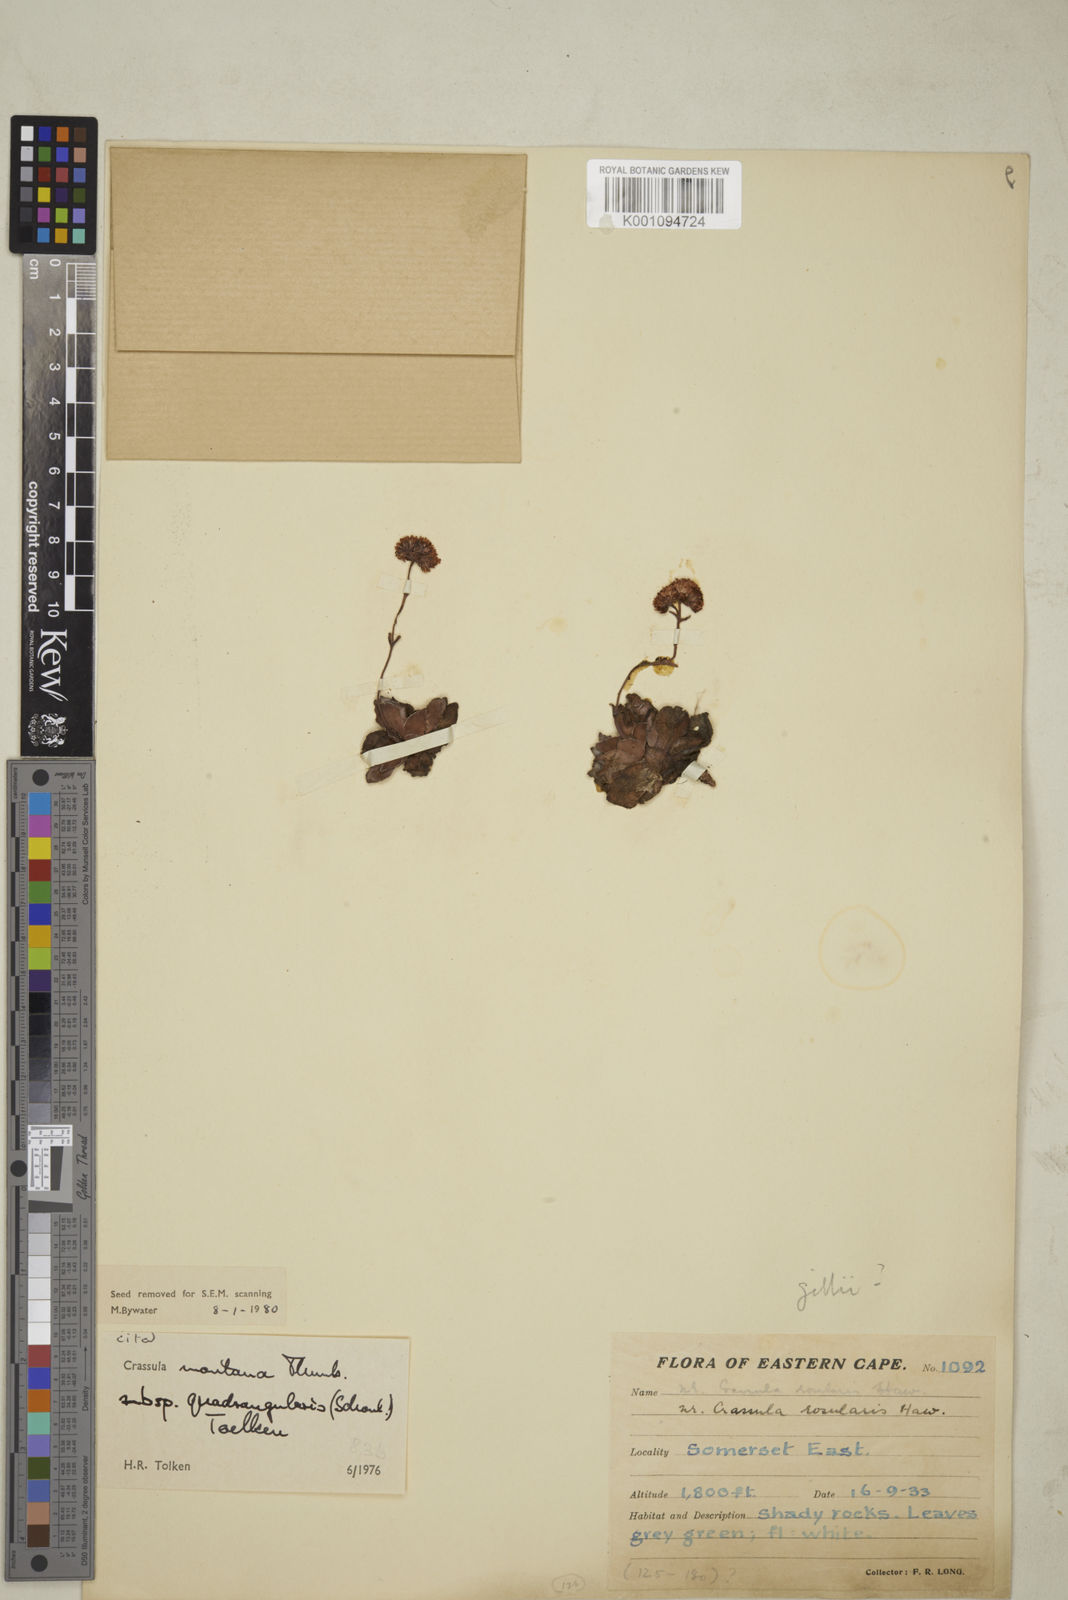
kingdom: Plantae
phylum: Tracheophyta
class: Magnoliopsida
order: Saxifragales
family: Crassulaceae
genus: Crassula
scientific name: Crassula montana
